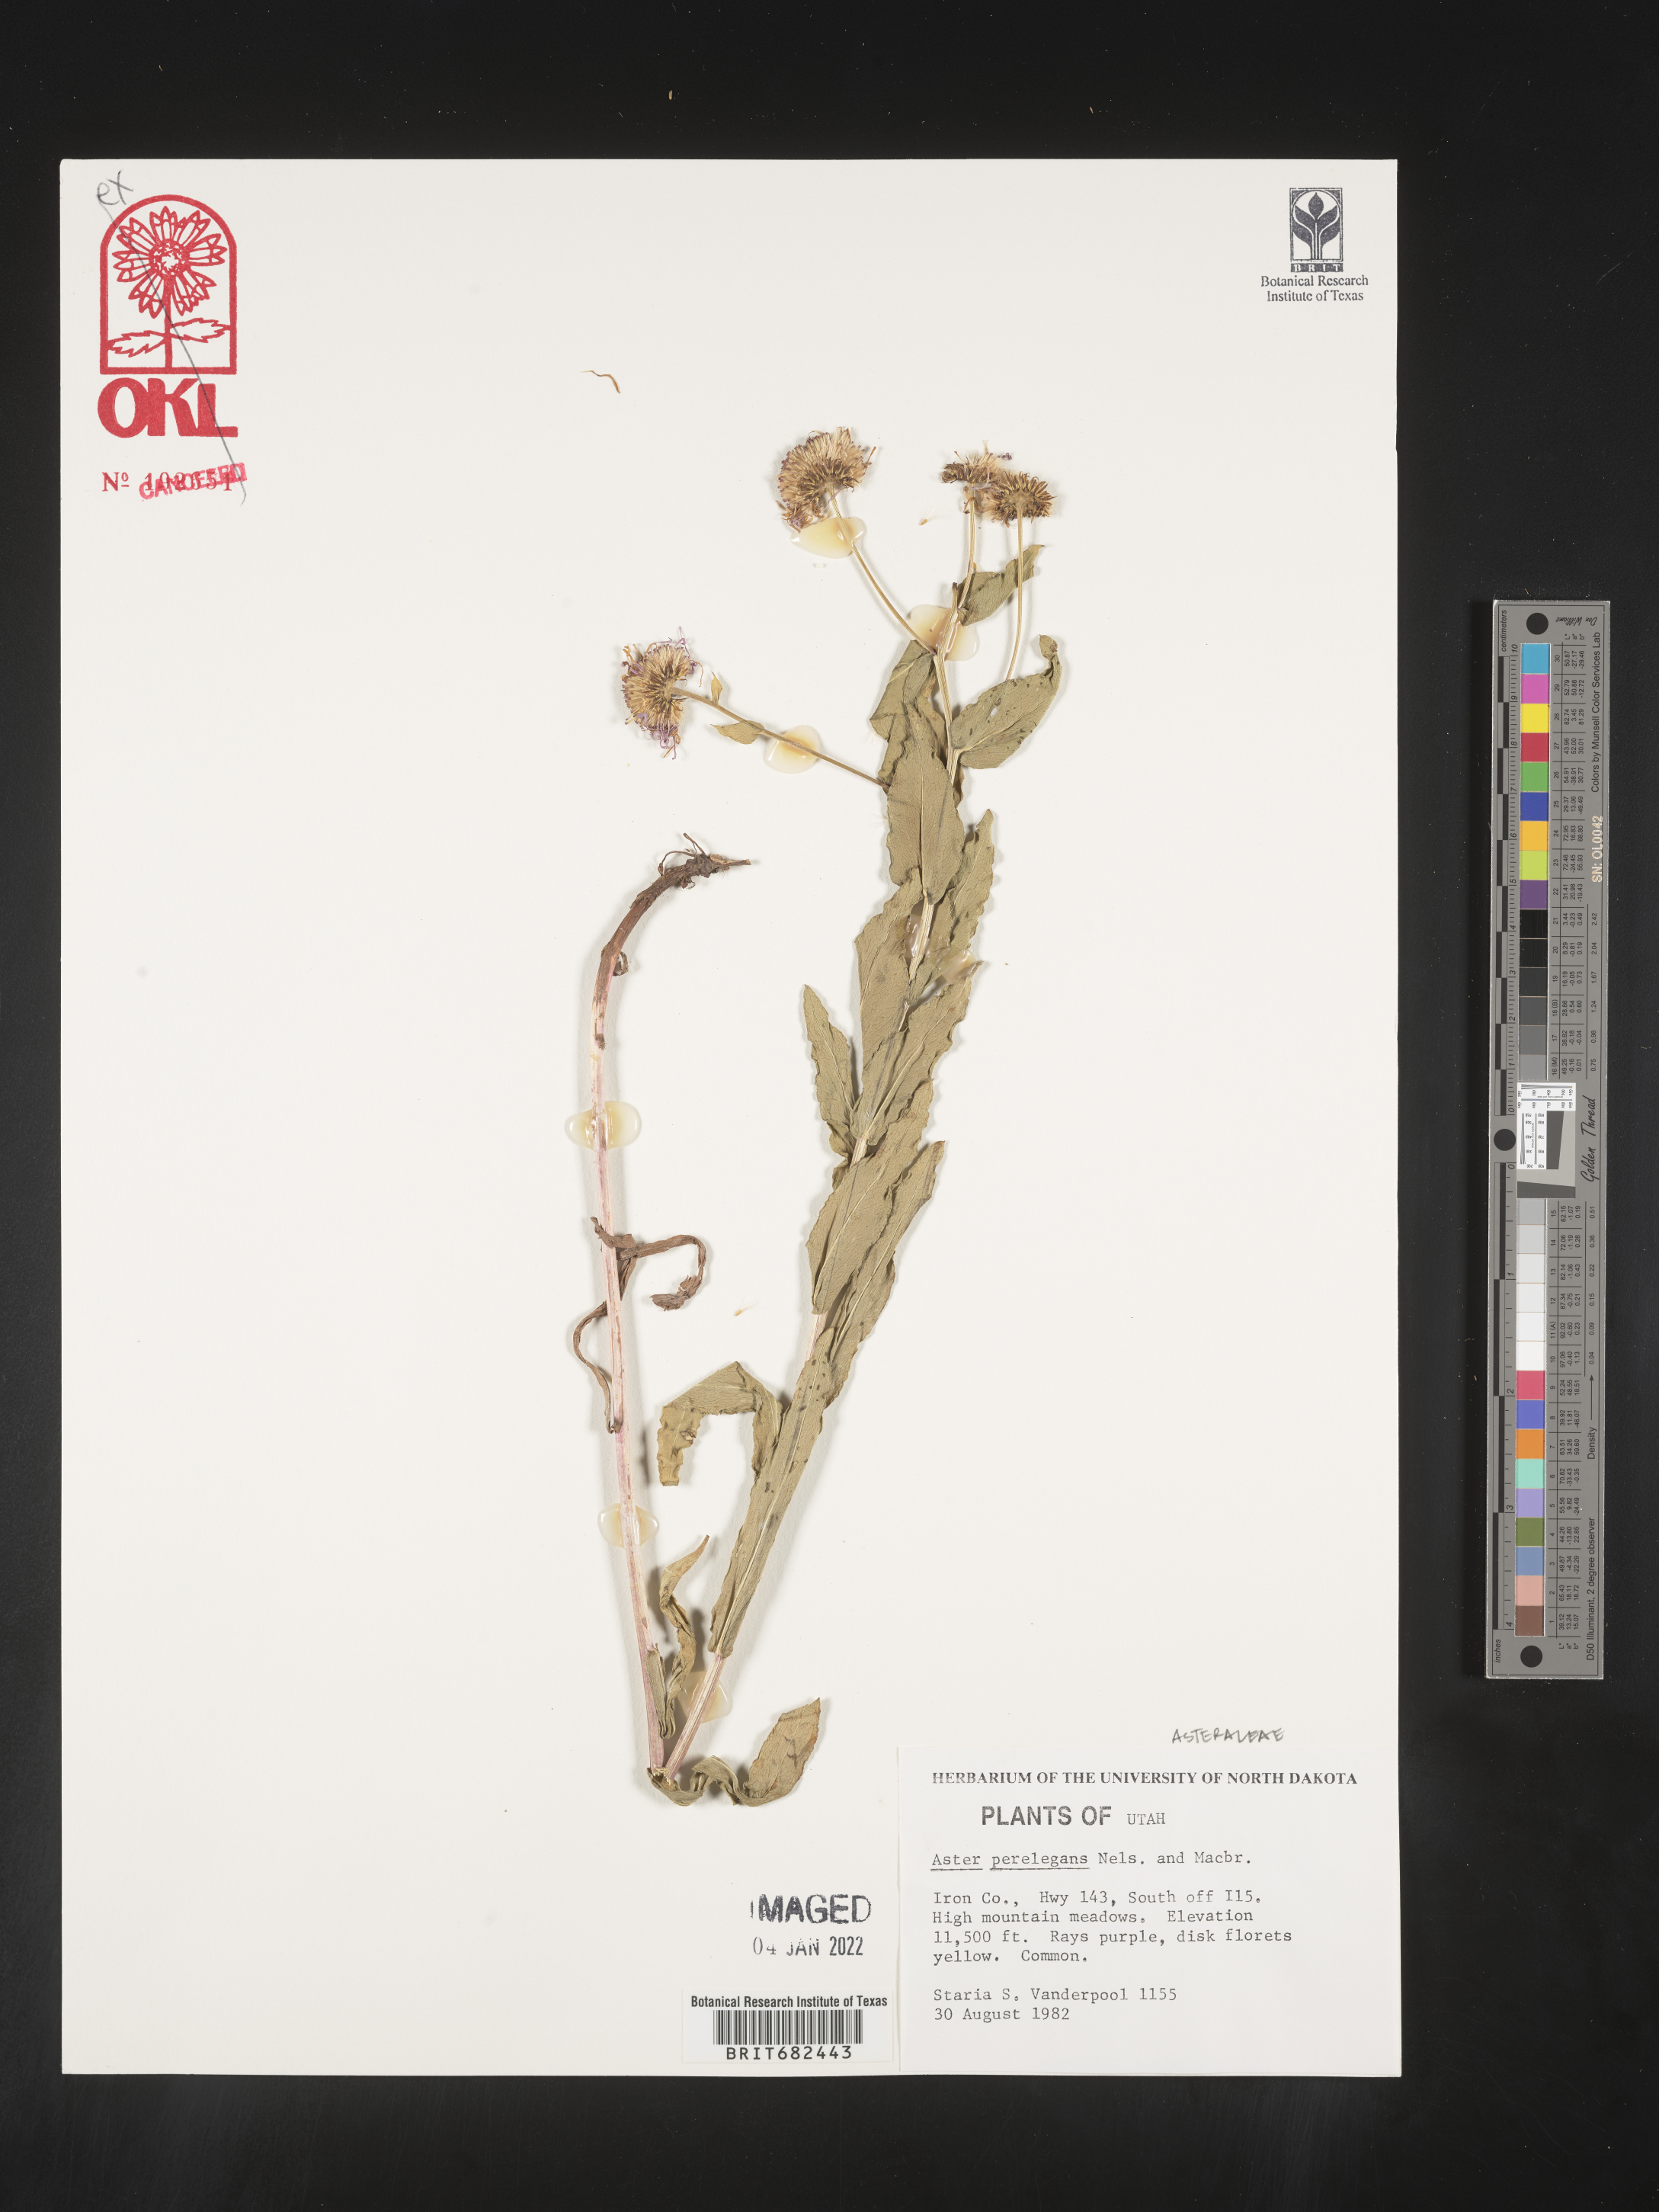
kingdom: Plantae
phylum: Tracheophyta
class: Magnoliopsida
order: Asterales
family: Asteraceae
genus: Aster
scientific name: Aster
